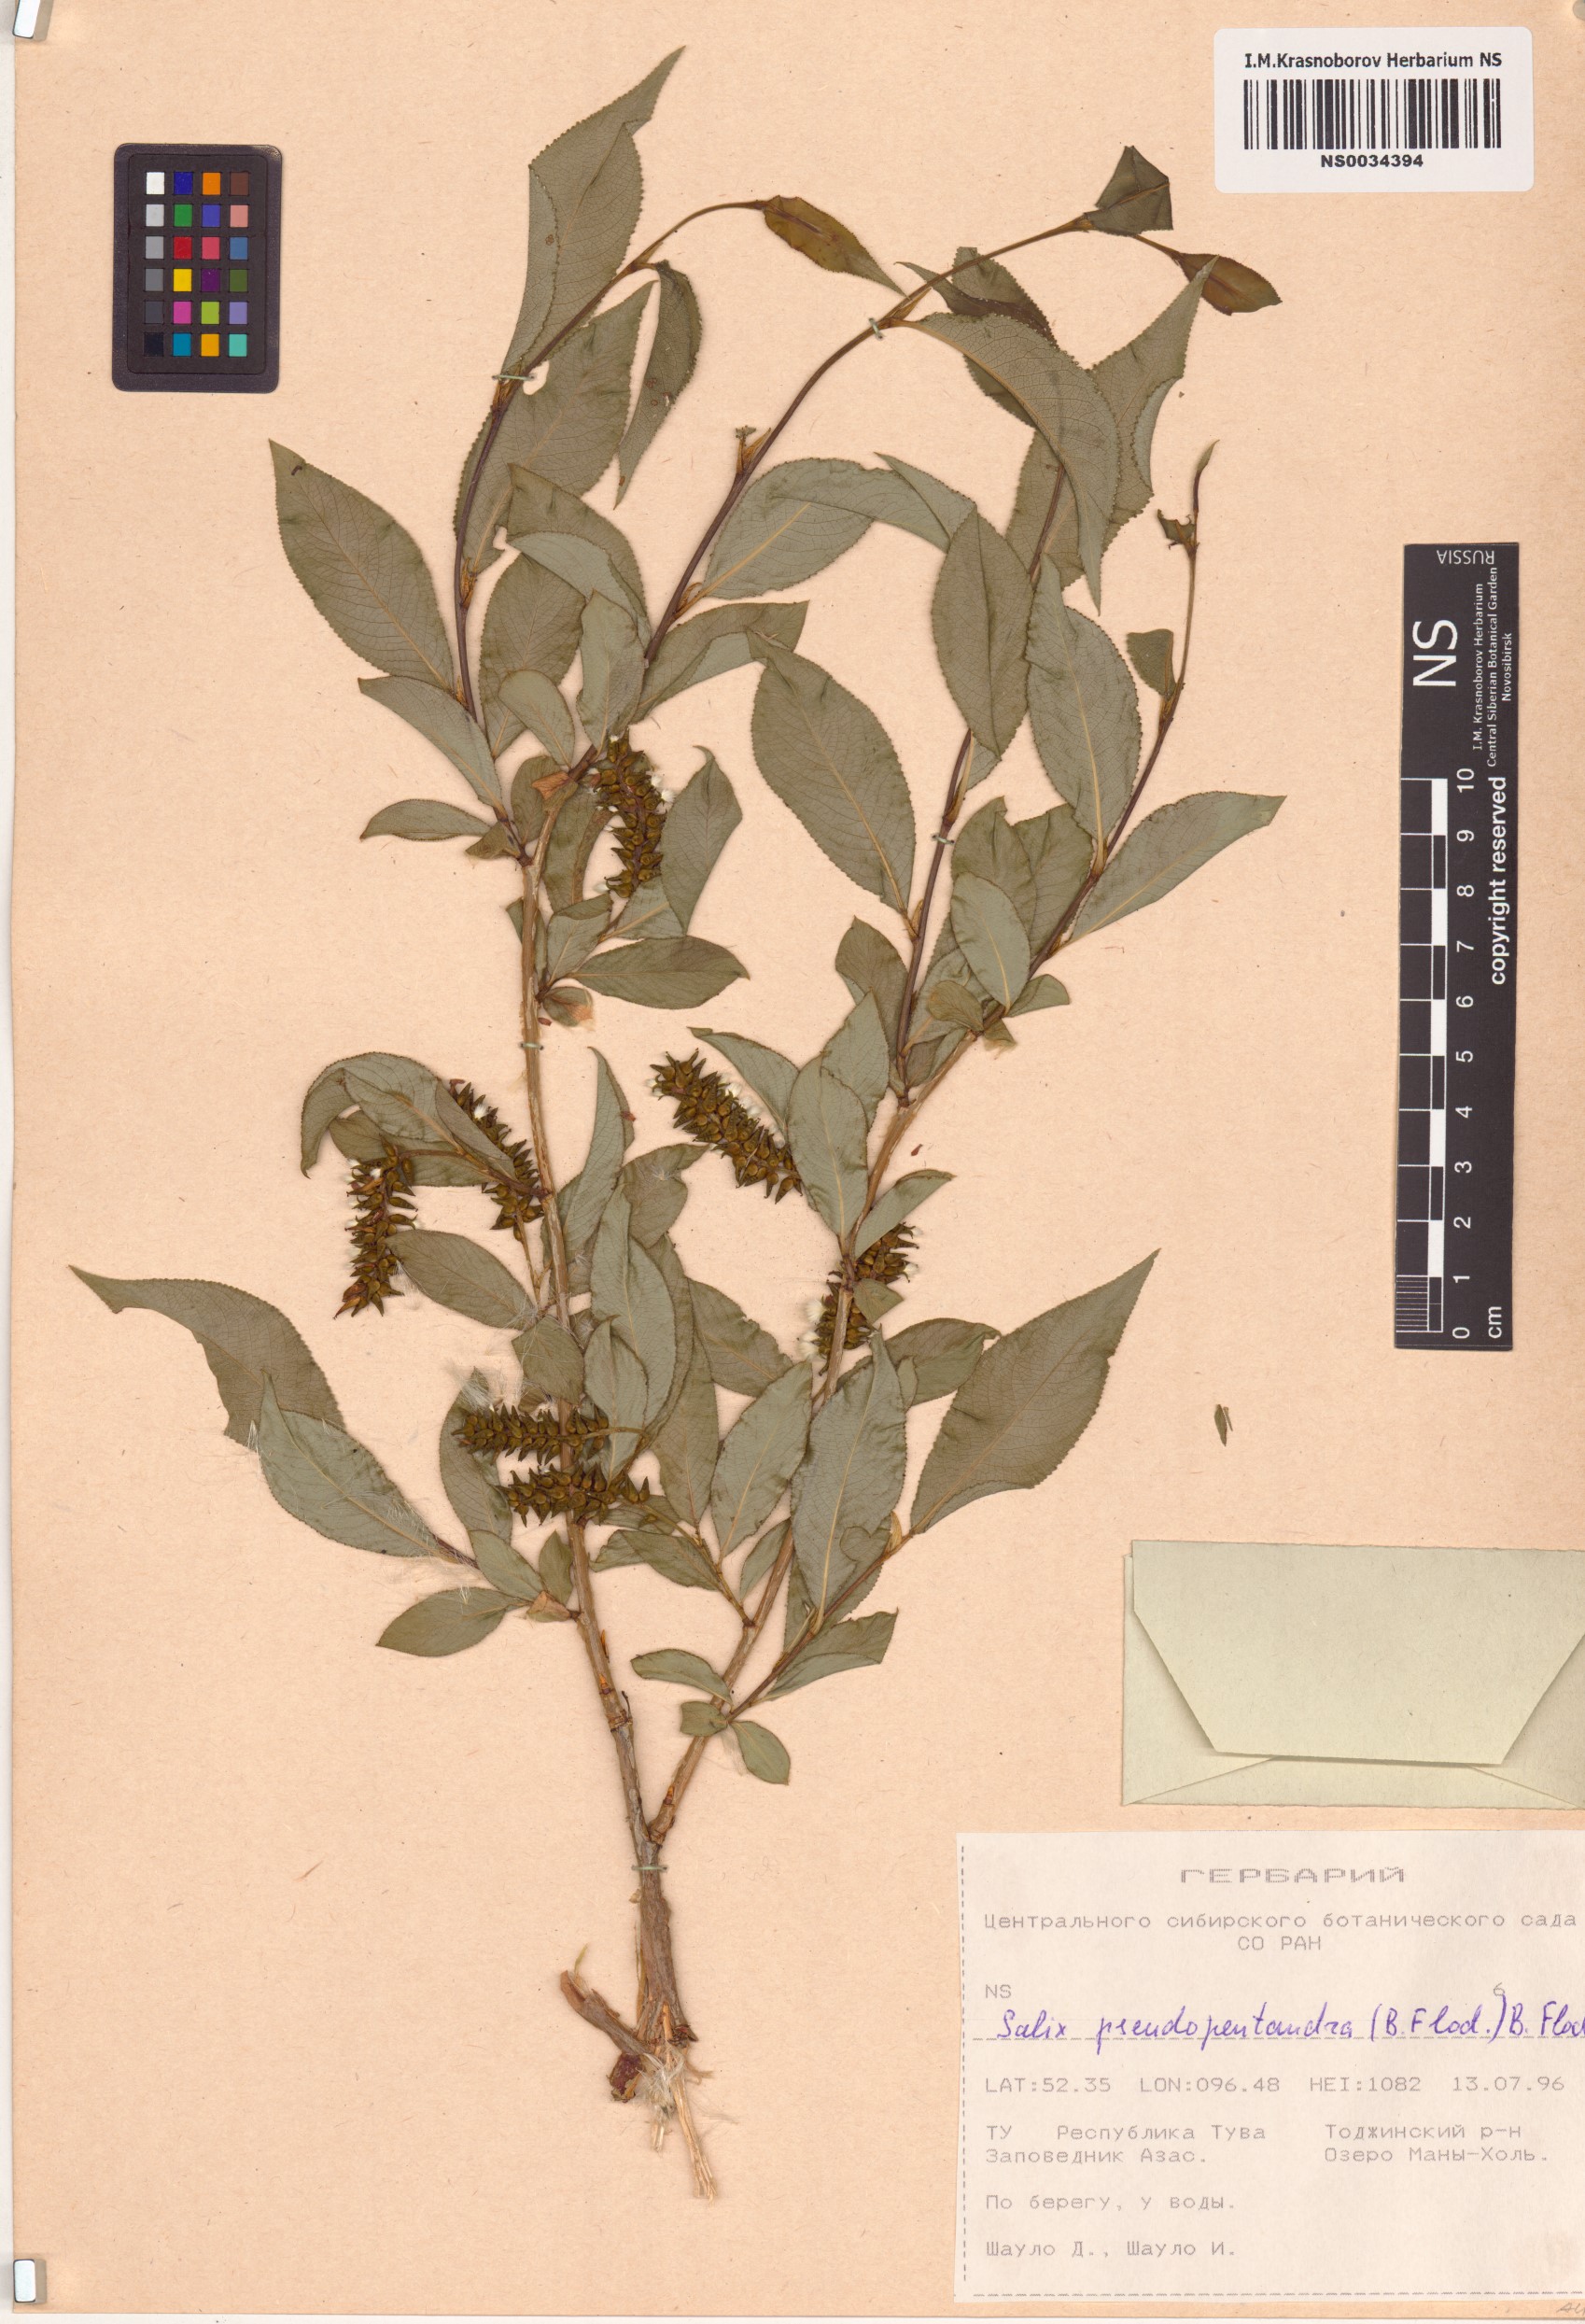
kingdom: Plantae
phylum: Tracheophyta
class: Magnoliopsida
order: Malpighiales
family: Salicaceae
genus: Salix
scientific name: Salix pseudopentandra
